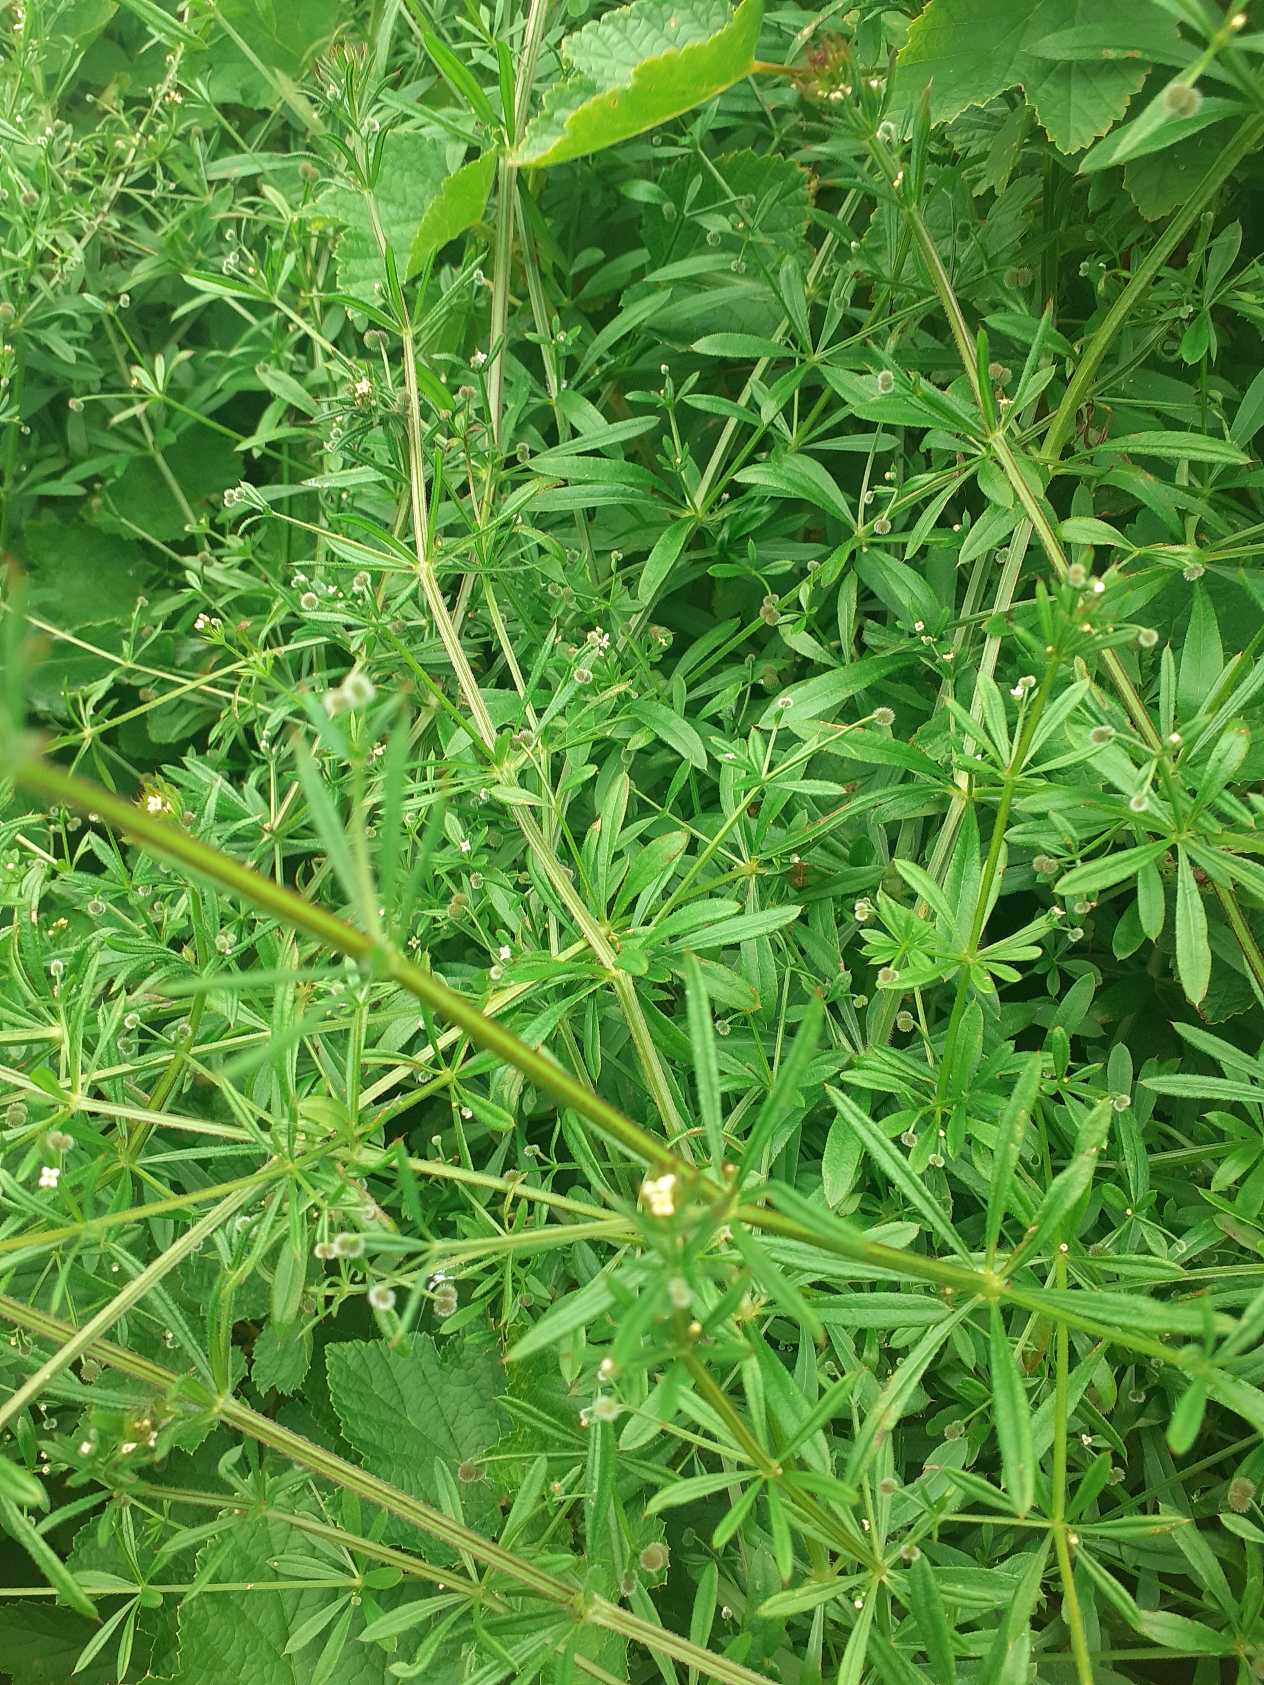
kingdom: Plantae
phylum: Tracheophyta
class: Magnoliopsida
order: Gentianales
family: Rubiaceae
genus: Galium
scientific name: Galium aparine
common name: Burre-snerre
